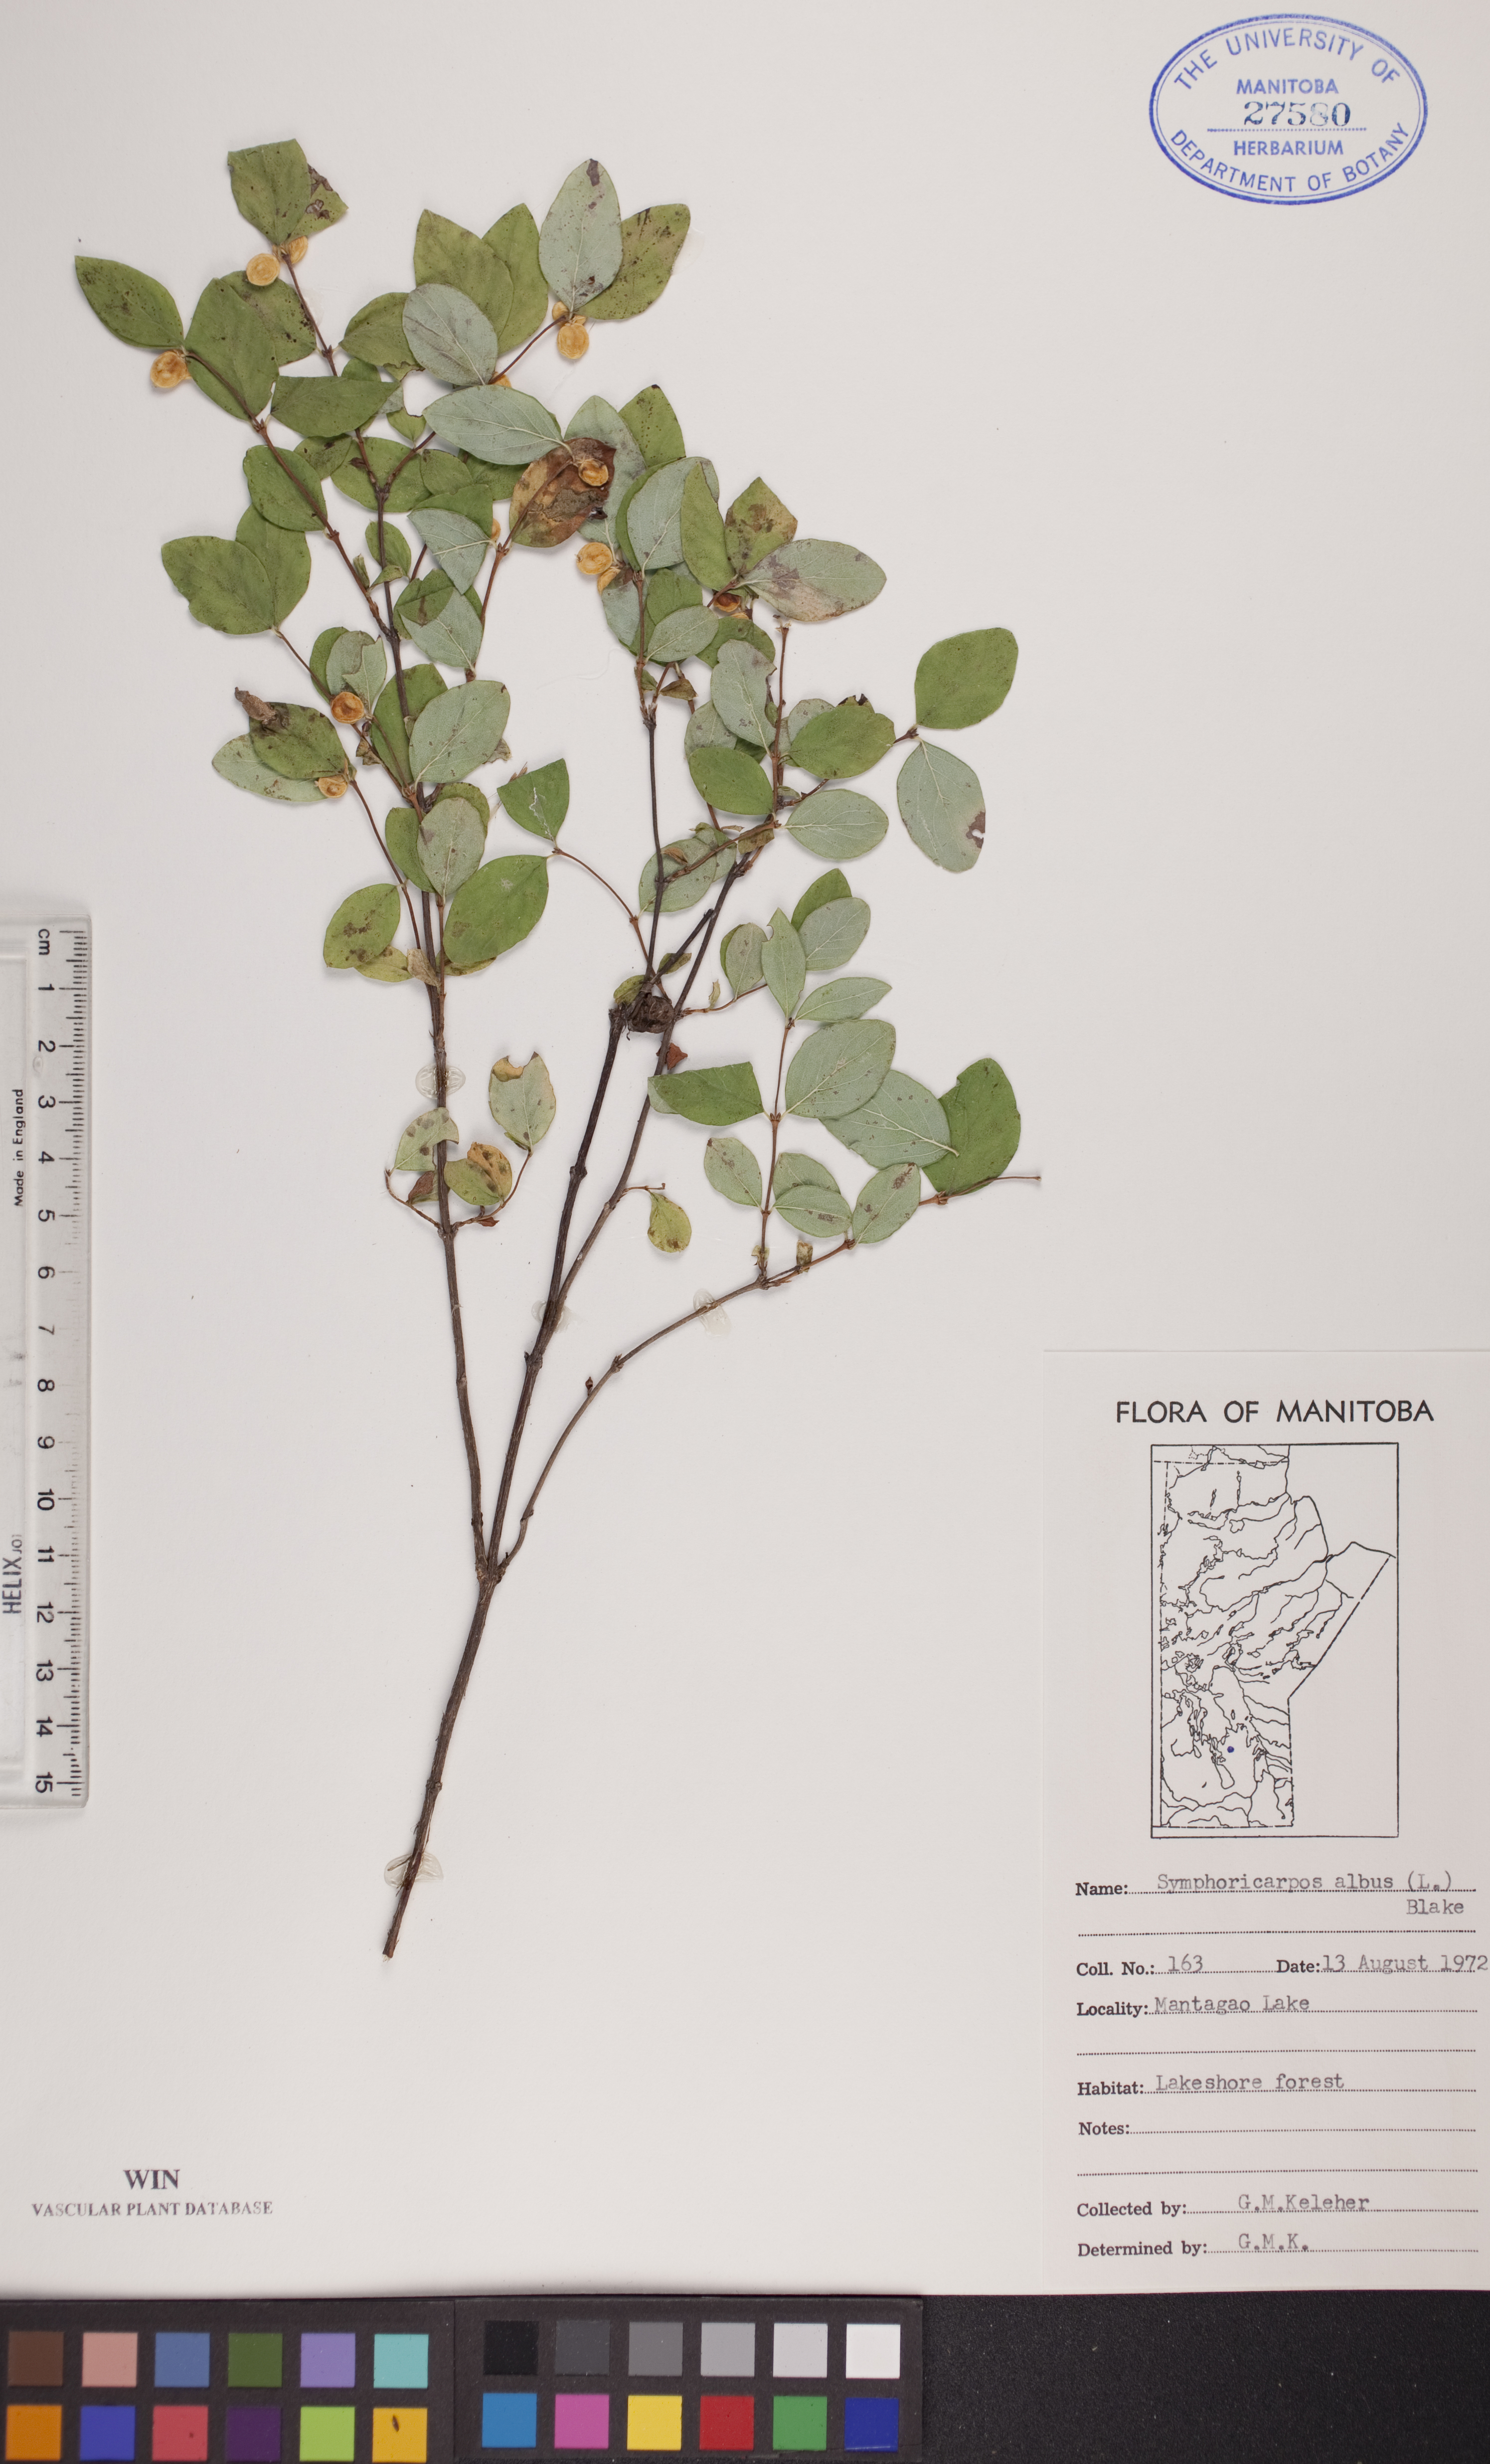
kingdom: Plantae
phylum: Tracheophyta
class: Magnoliopsida
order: Dipsacales
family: Caprifoliaceae
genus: Symphoricarpos
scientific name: Symphoricarpos albus
